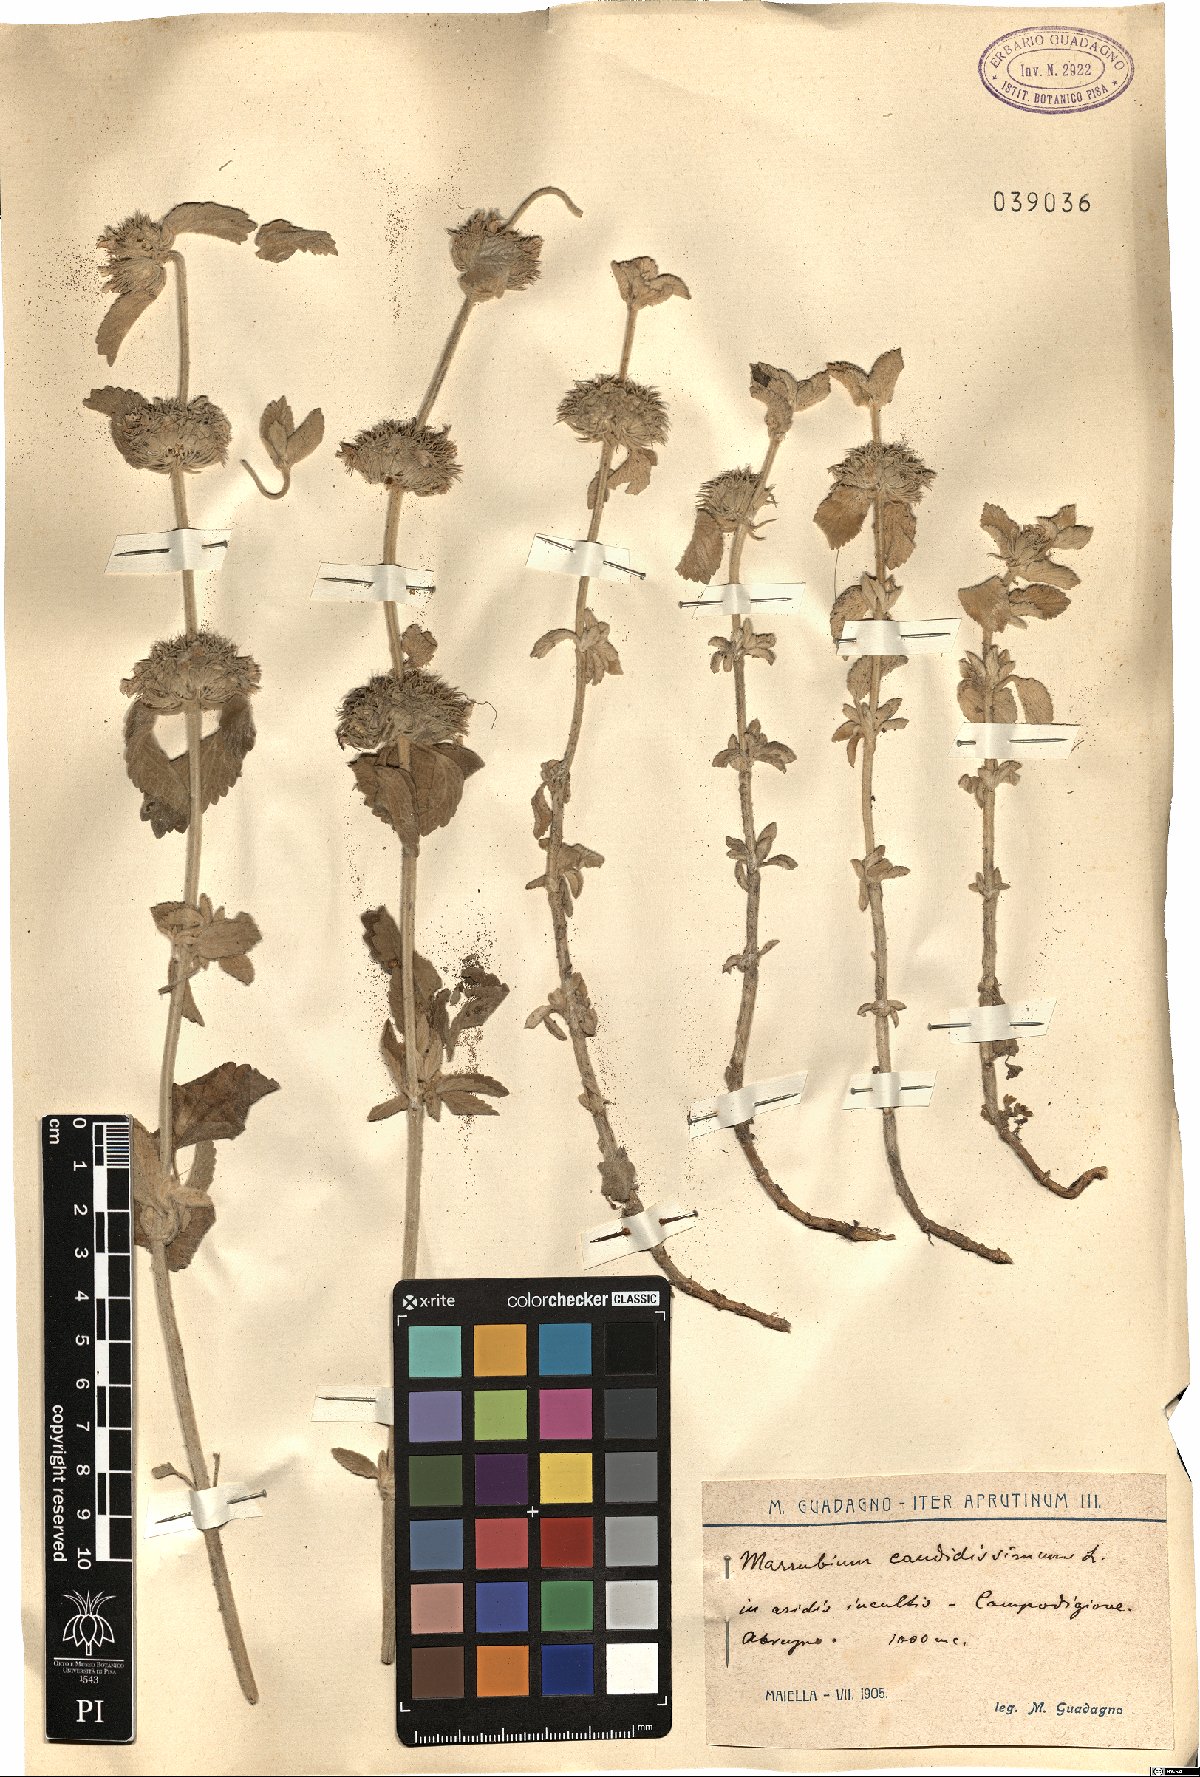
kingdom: Plantae
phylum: Tracheophyta
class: Magnoliopsida
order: Lamiales
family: Lamiaceae
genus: Marrubium
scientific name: Marrubium peregrinum
